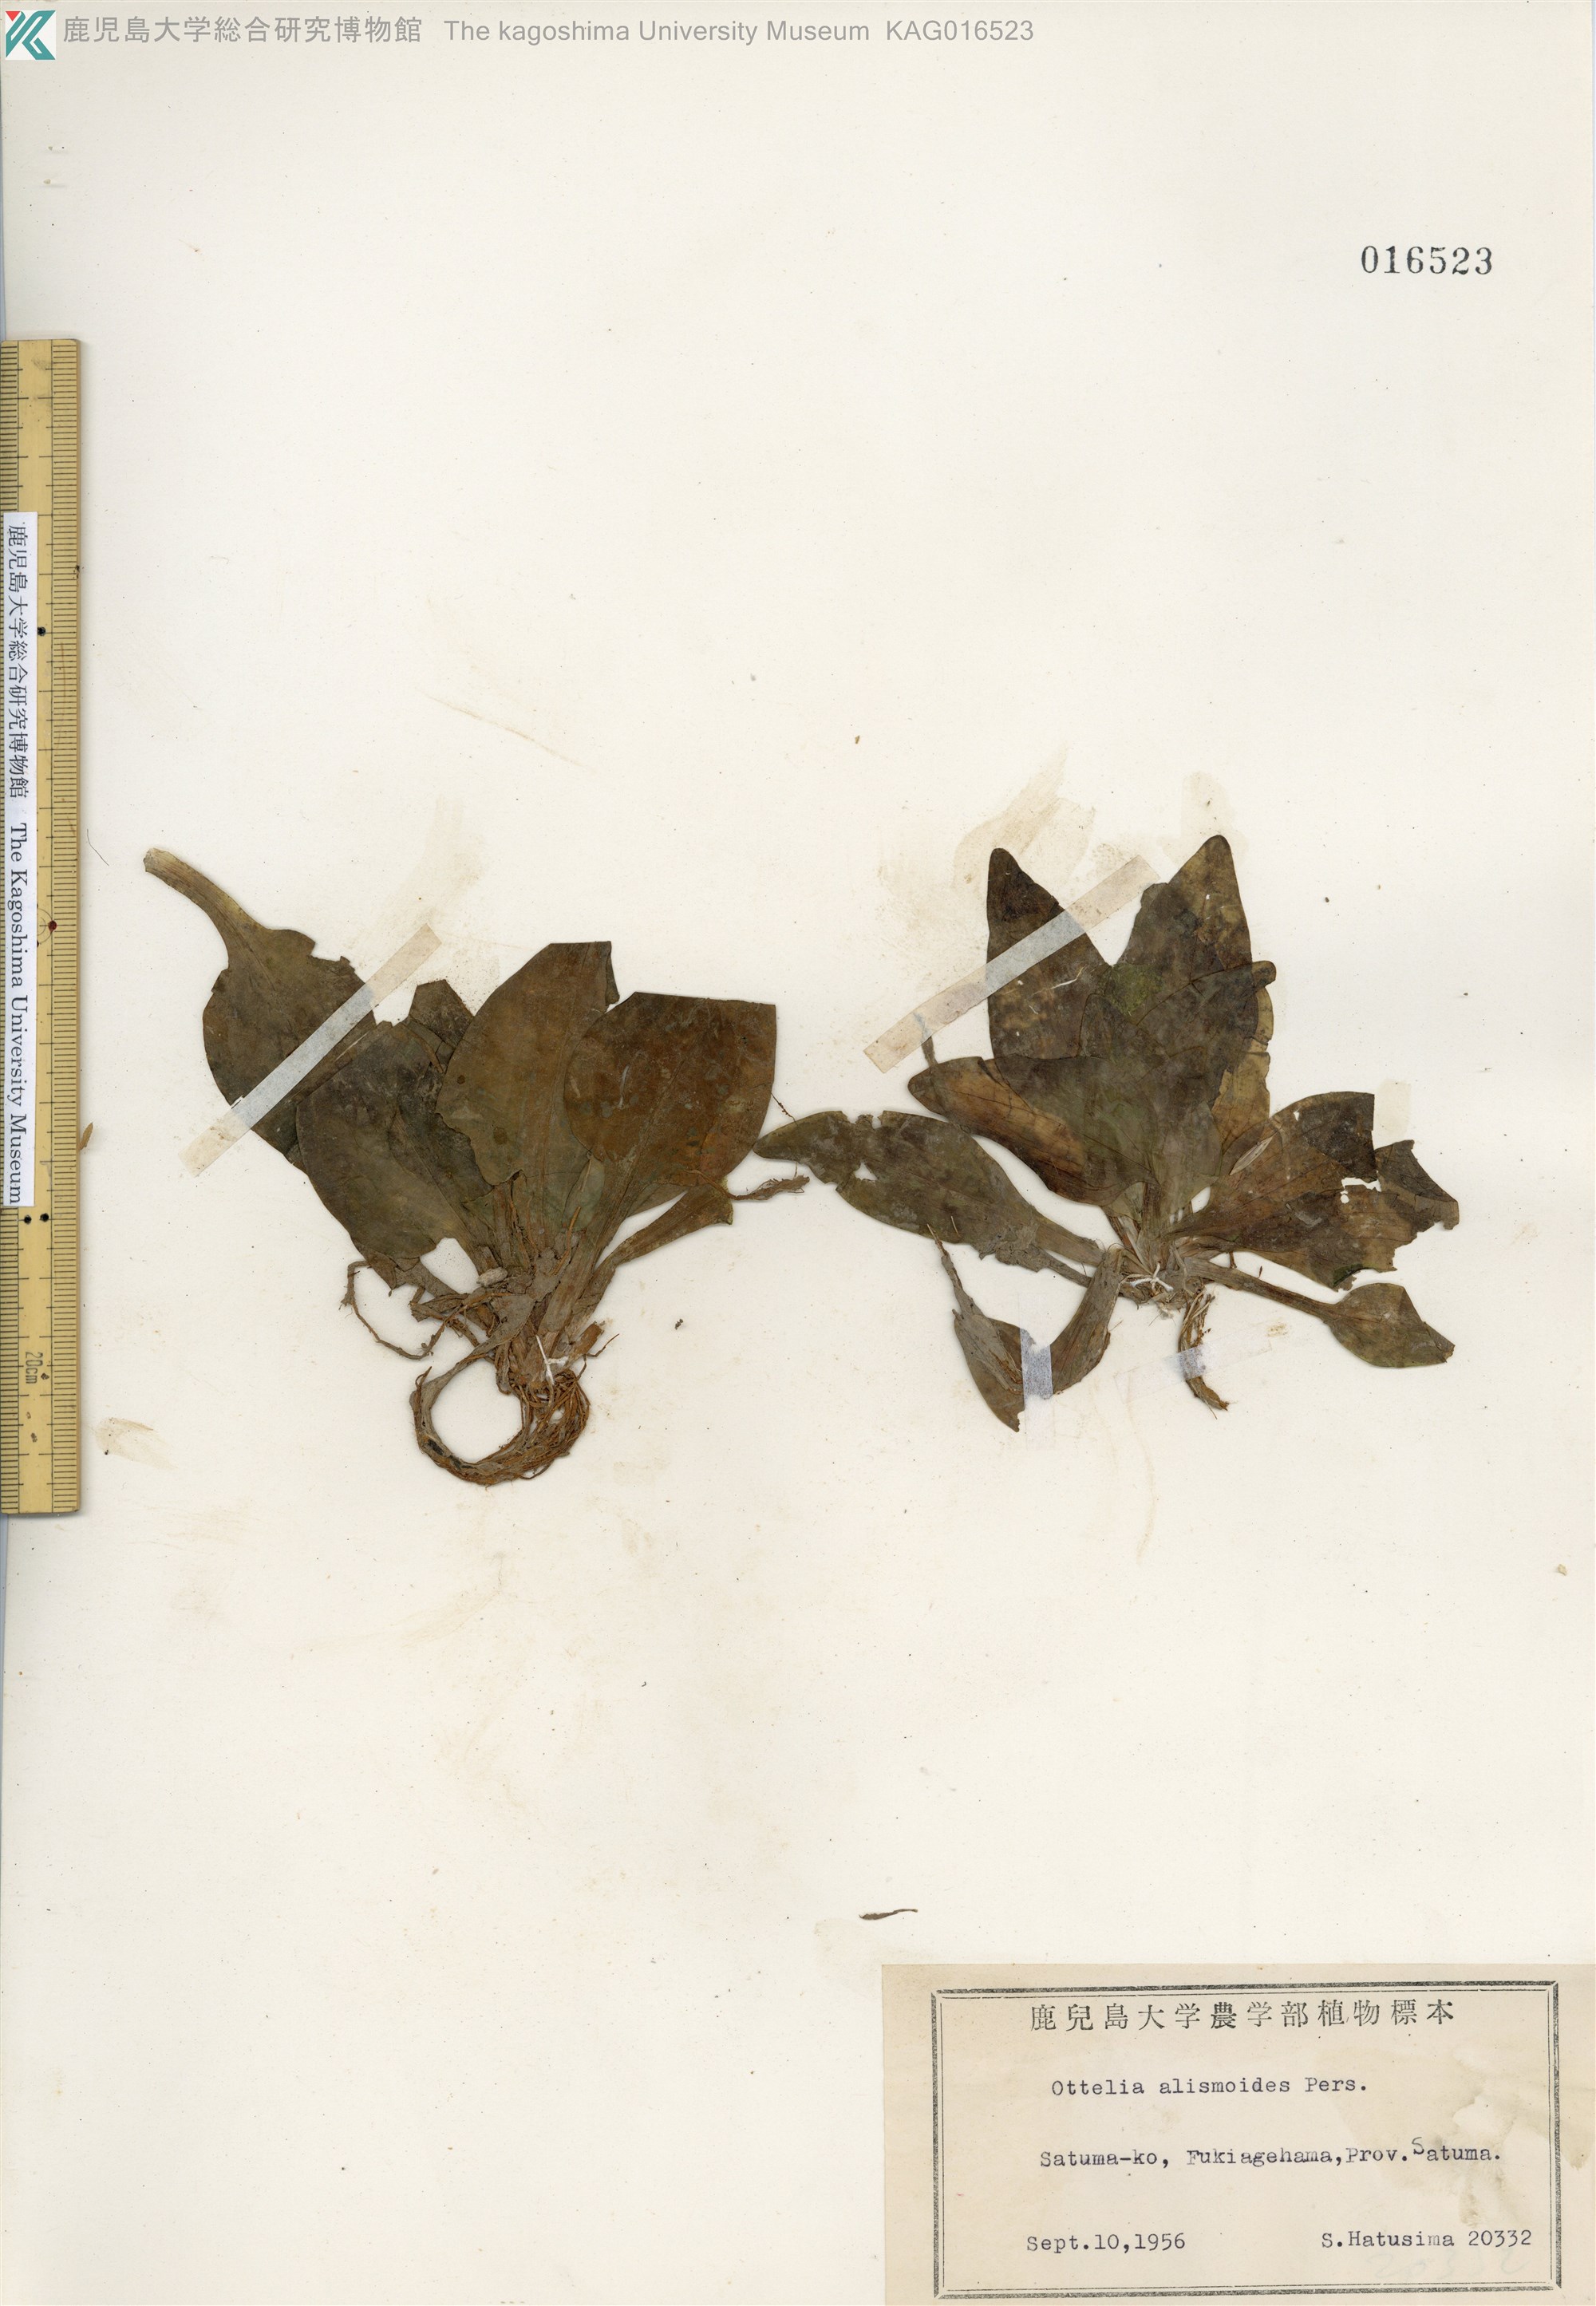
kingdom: Plantae
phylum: Tracheophyta
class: Liliopsida
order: Alismatales
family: Hydrocharitaceae
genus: Ottelia
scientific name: Ottelia alismoides
